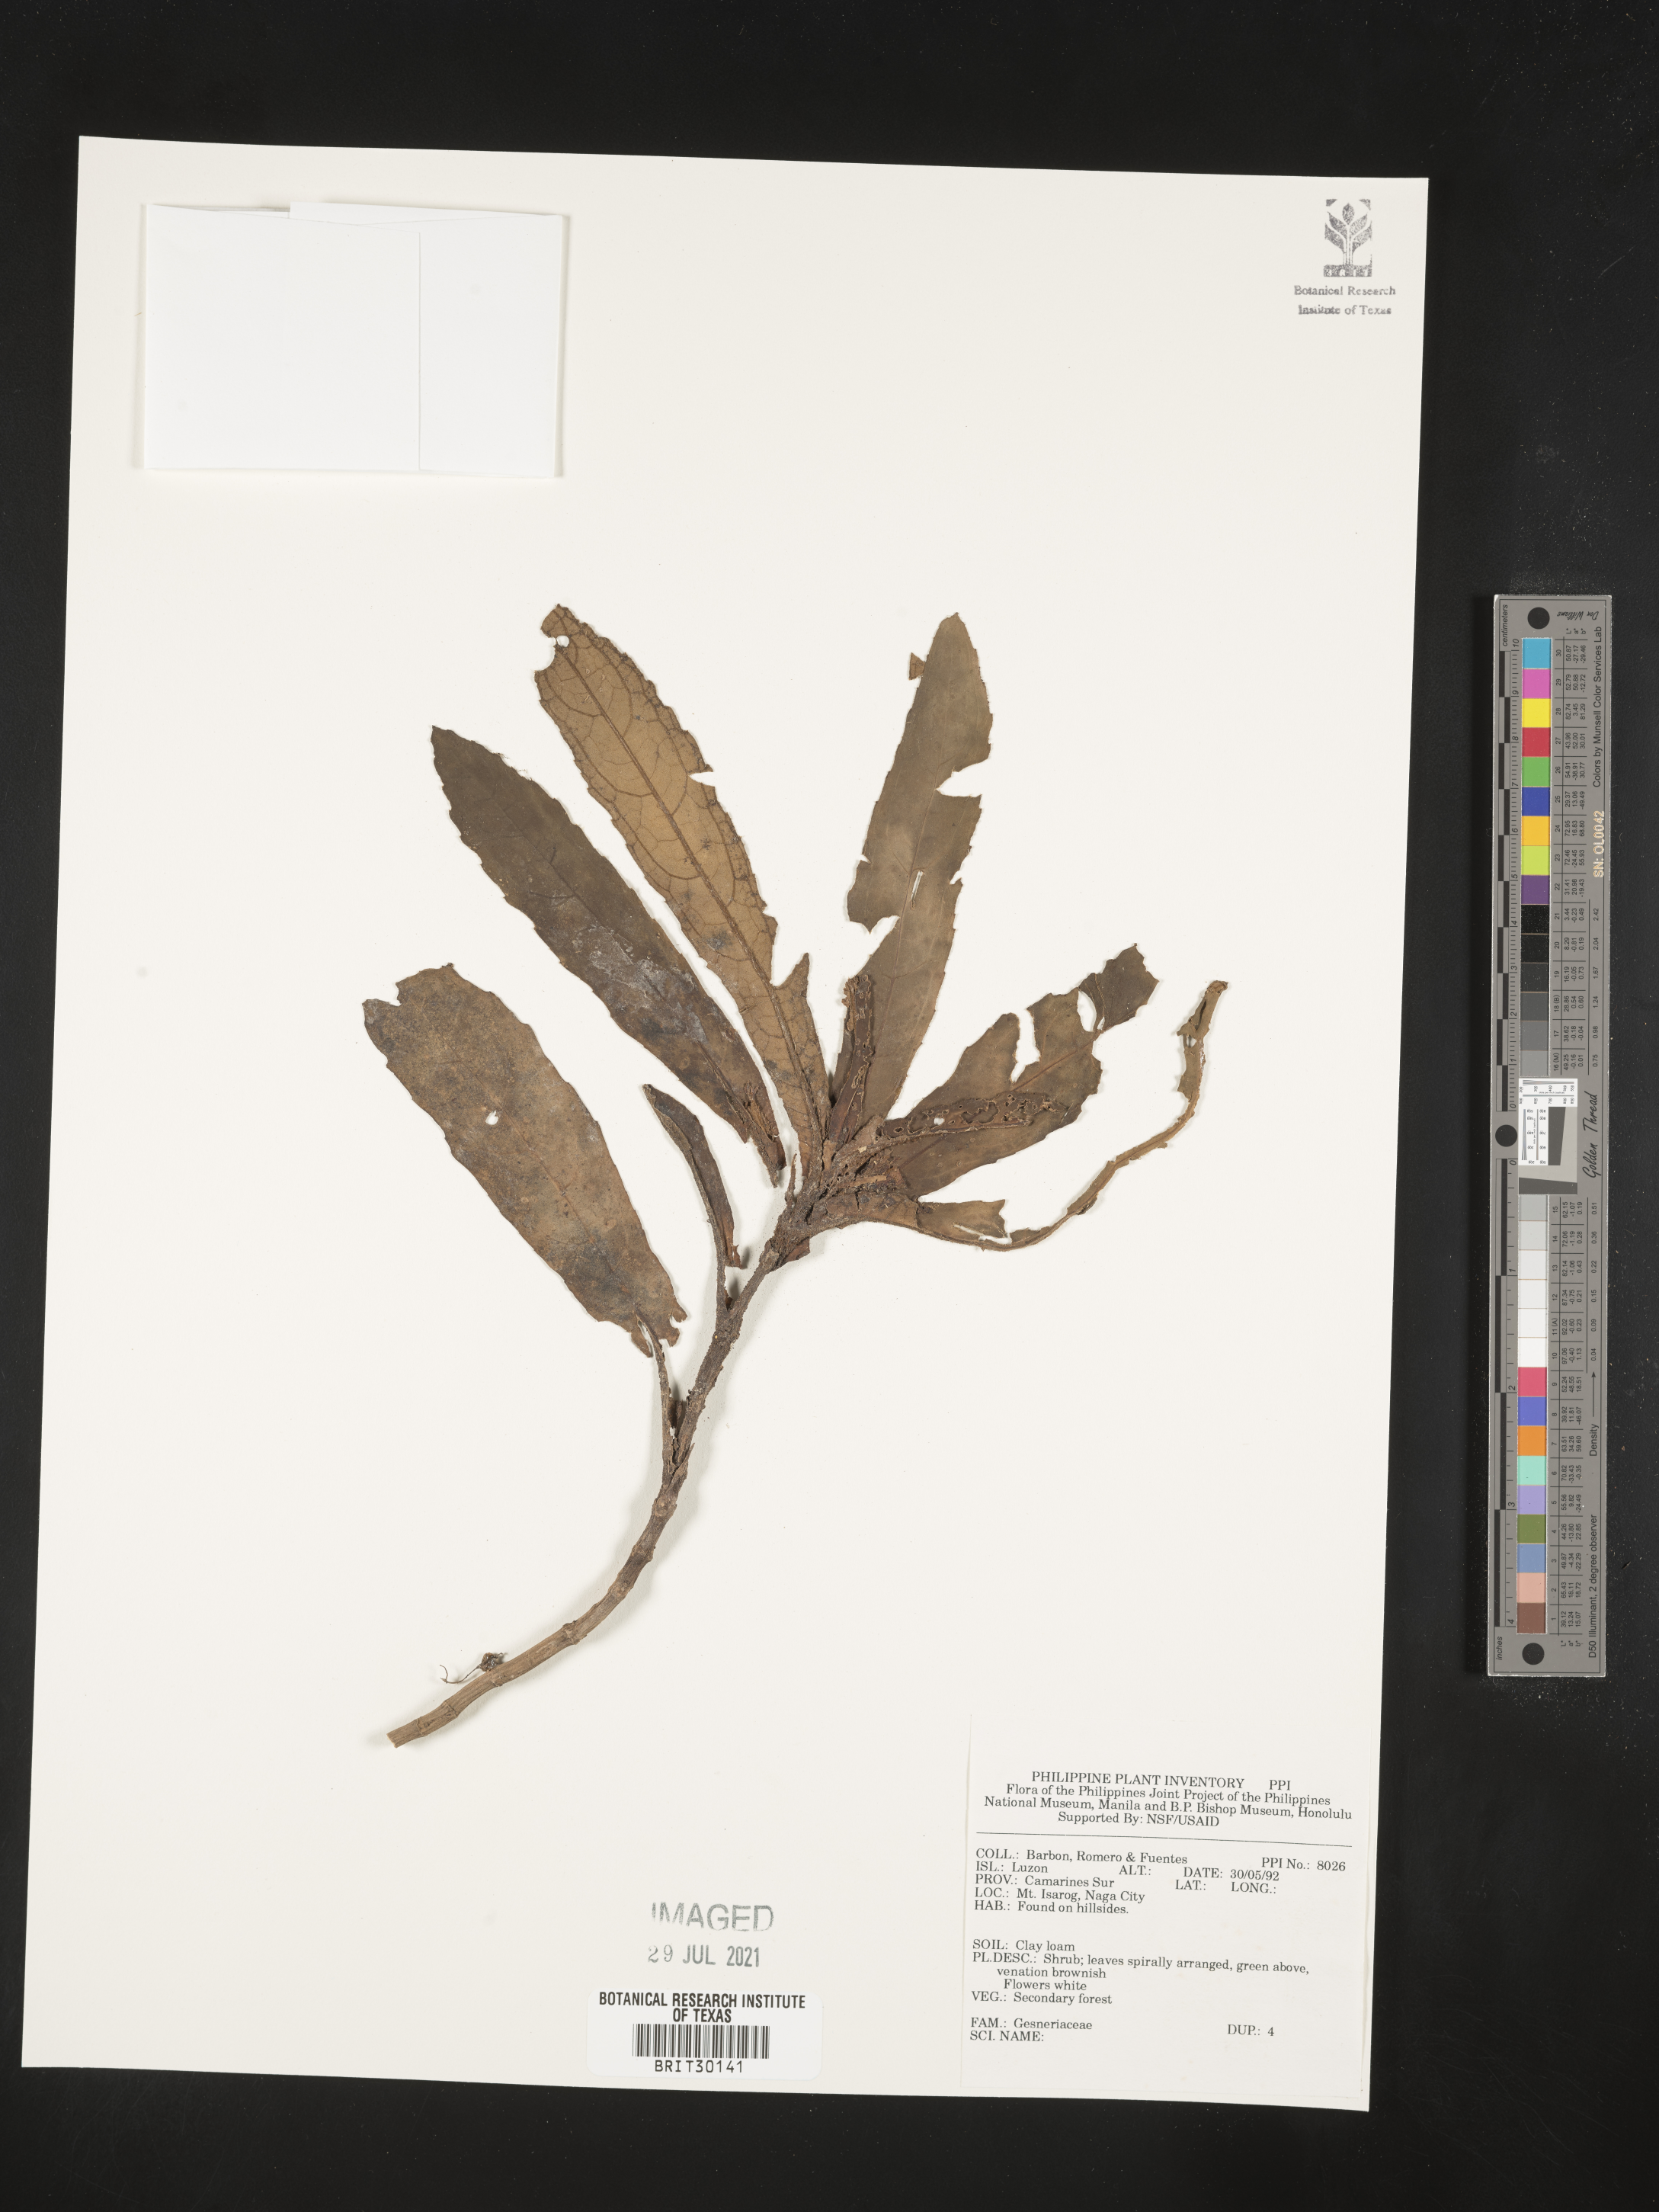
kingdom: Plantae
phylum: Tracheophyta
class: Magnoliopsida
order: Lamiales
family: Gesneriaceae
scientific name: Gesneriaceae
